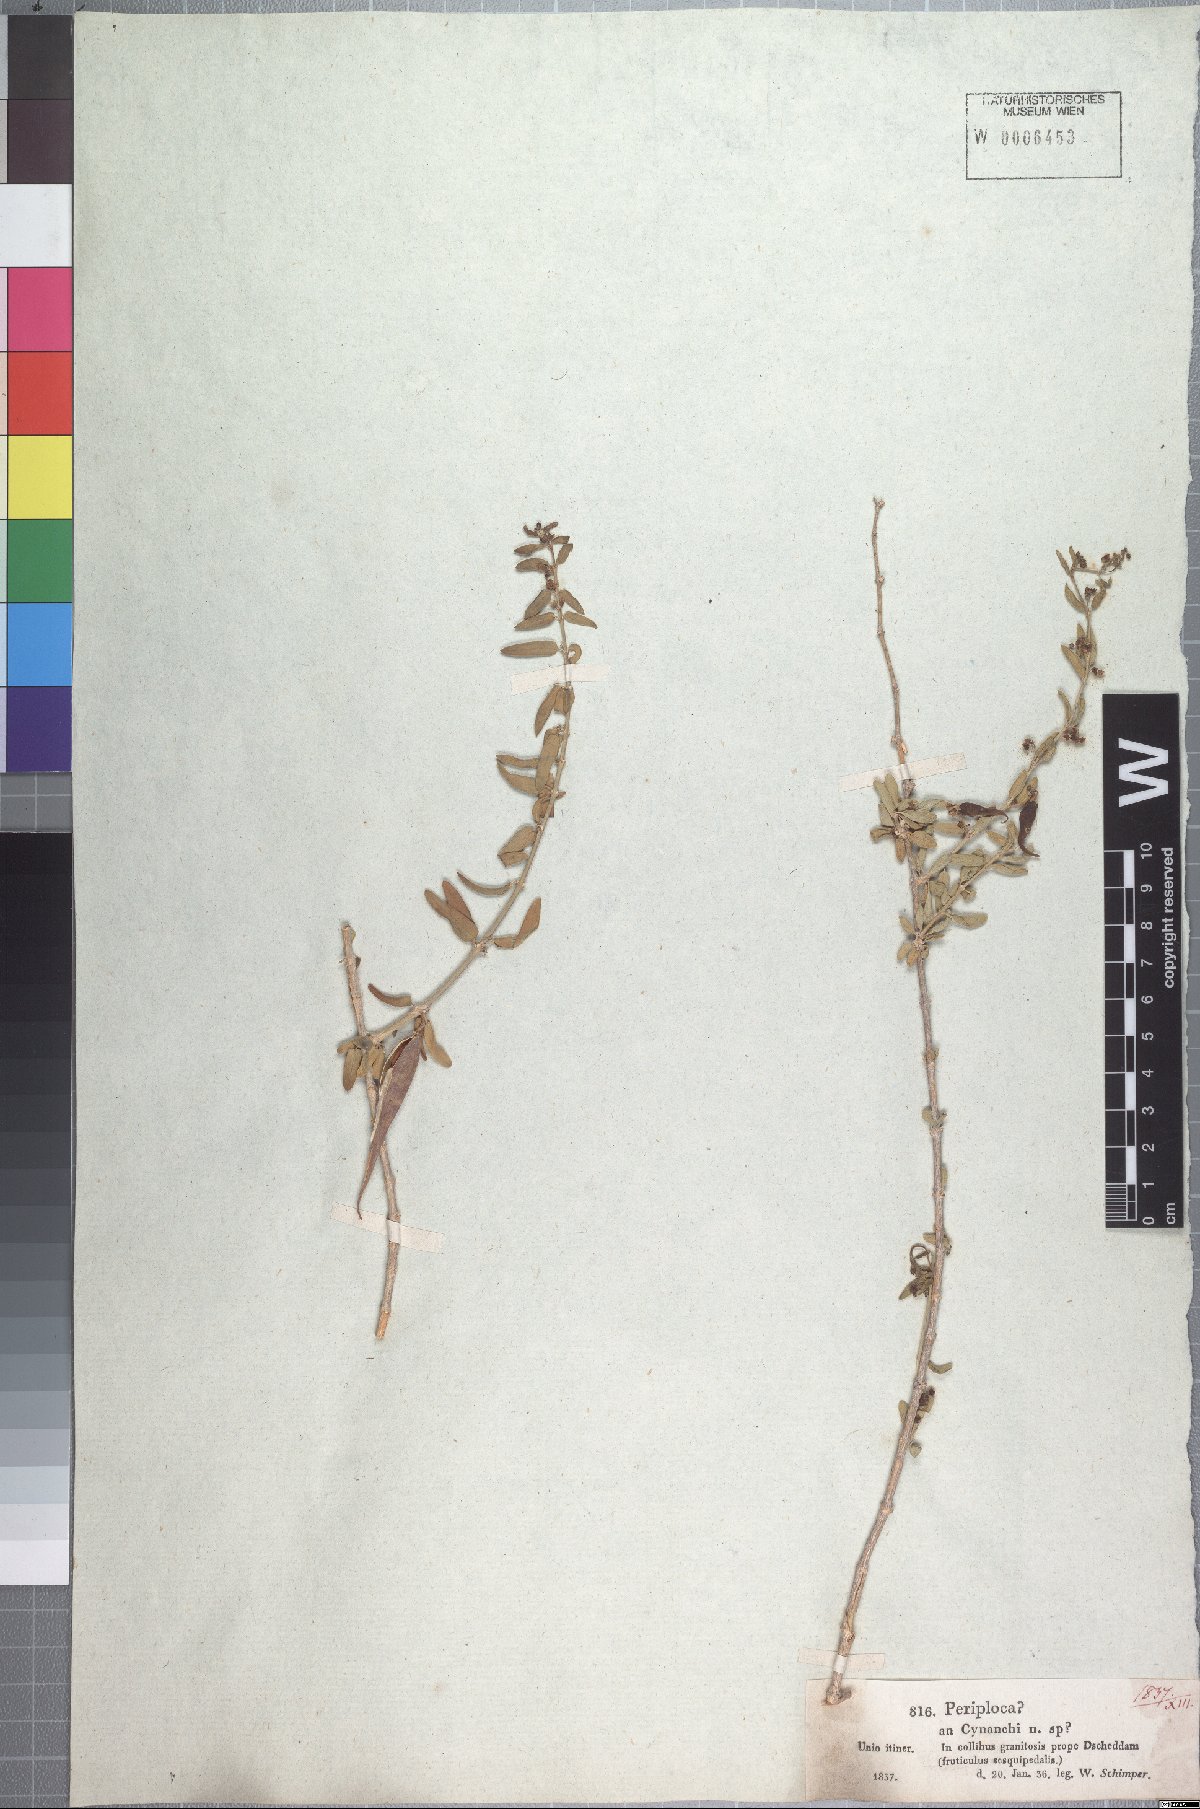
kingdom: Plantae
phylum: Tracheophyta
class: Liliopsida
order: Poales
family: Poaceae
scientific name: Poaceae
